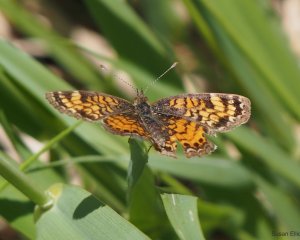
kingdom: Animalia
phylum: Arthropoda
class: Insecta
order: Lepidoptera
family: Nymphalidae
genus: Phyciodes
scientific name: Phyciodes
